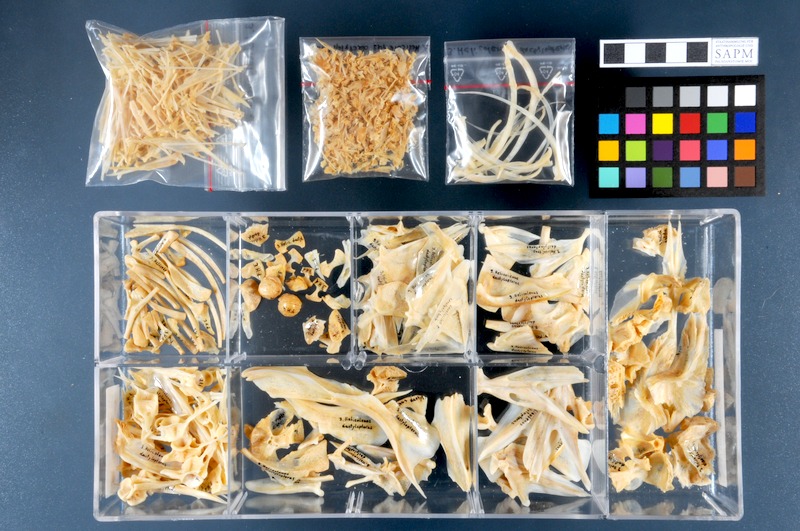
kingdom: Animalia
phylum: Chordata
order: Scorpaeniformes
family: Sebastidae
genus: Helicolenus
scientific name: Helicolenus dactylopterus
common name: Blackbelly rosefish
